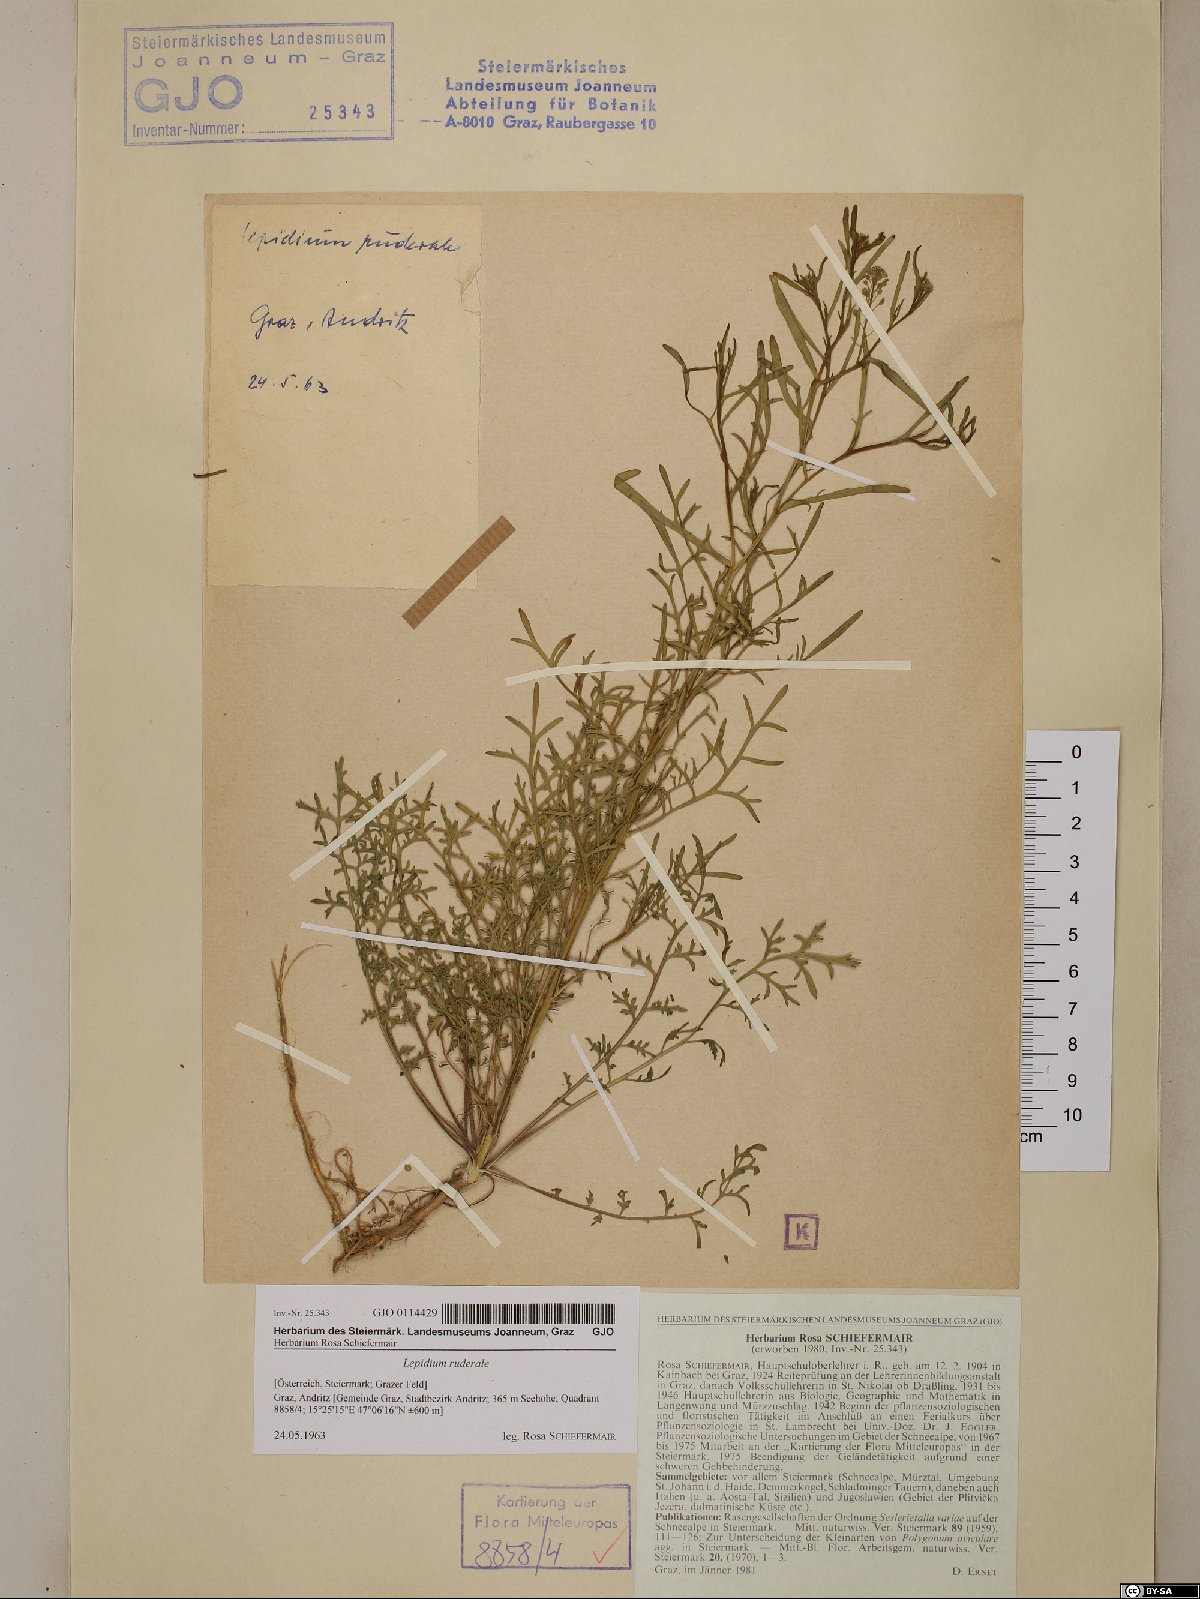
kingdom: Plantae
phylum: Tracheophyta
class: Magnoliopsida
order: Brassicales
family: Brassicaceae
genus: Lepidium
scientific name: Lepidium ruderale
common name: Narrow-leaved pepperwort
